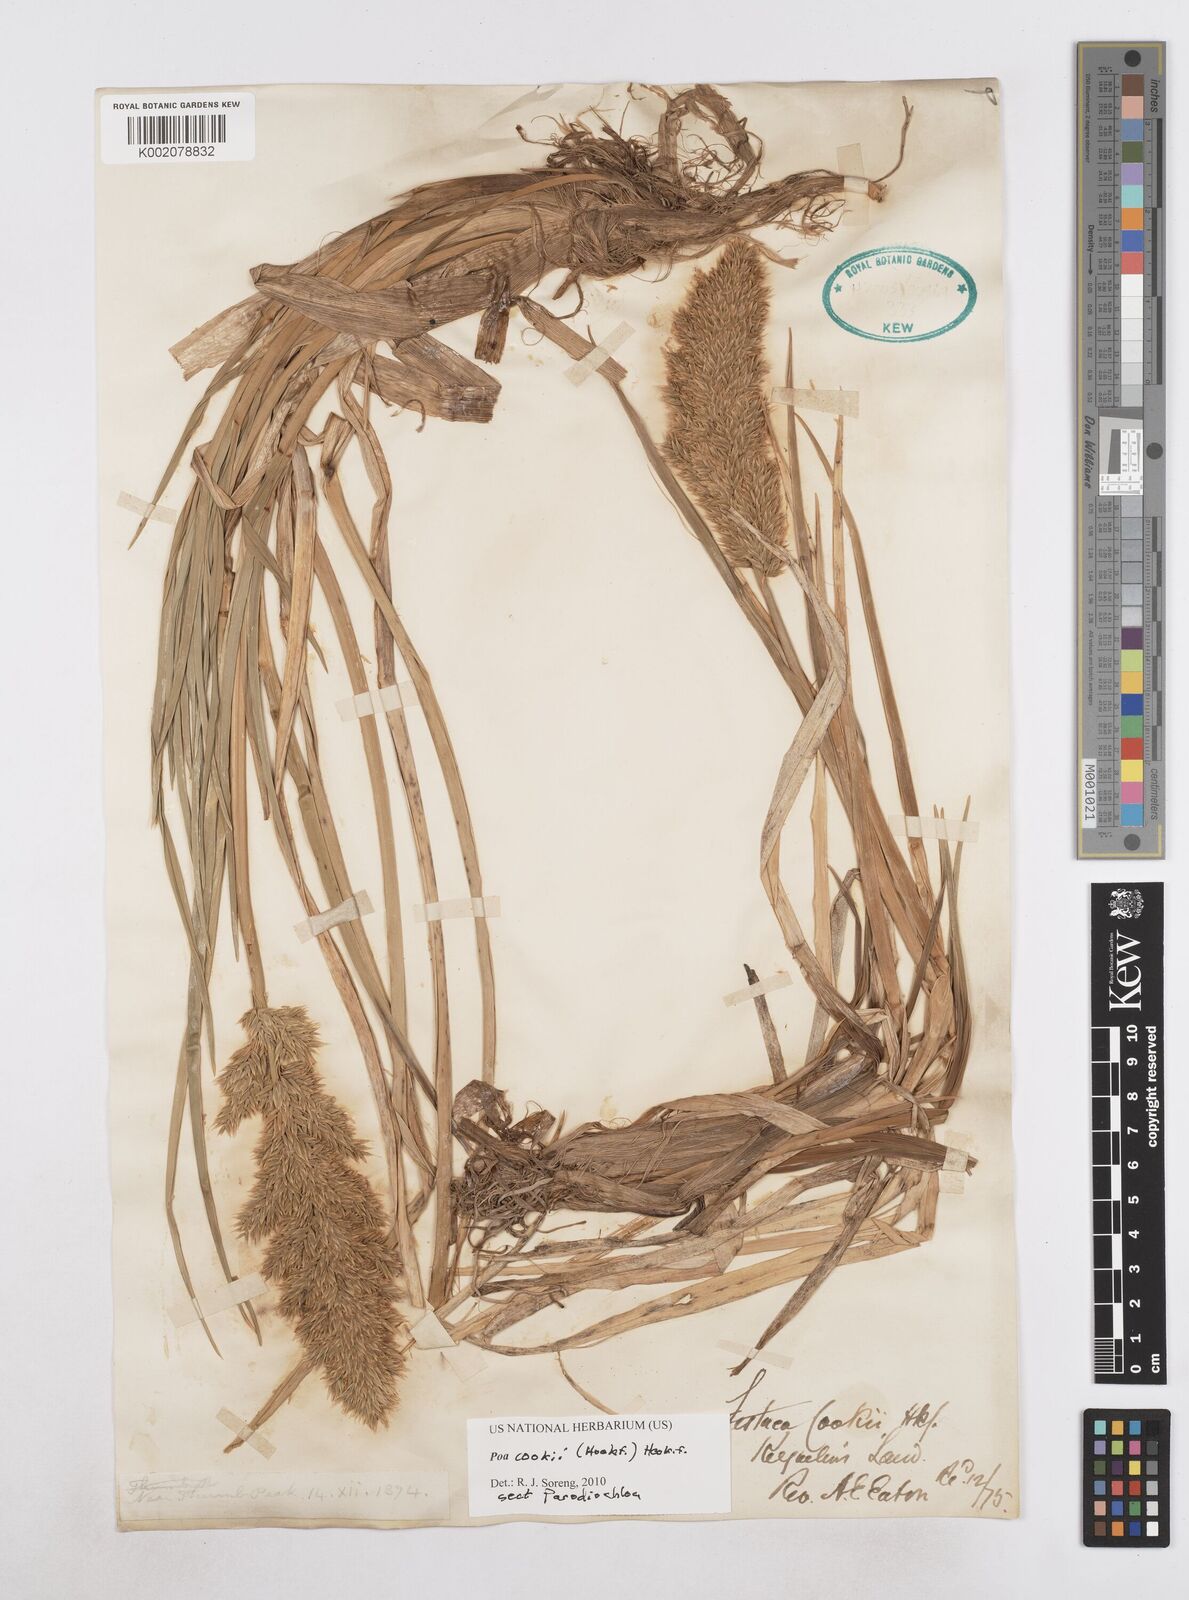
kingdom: Plantae
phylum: Tracheophyta
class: Liliopsida
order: Poales
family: Poaceae
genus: Poa
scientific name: Poa cookii
